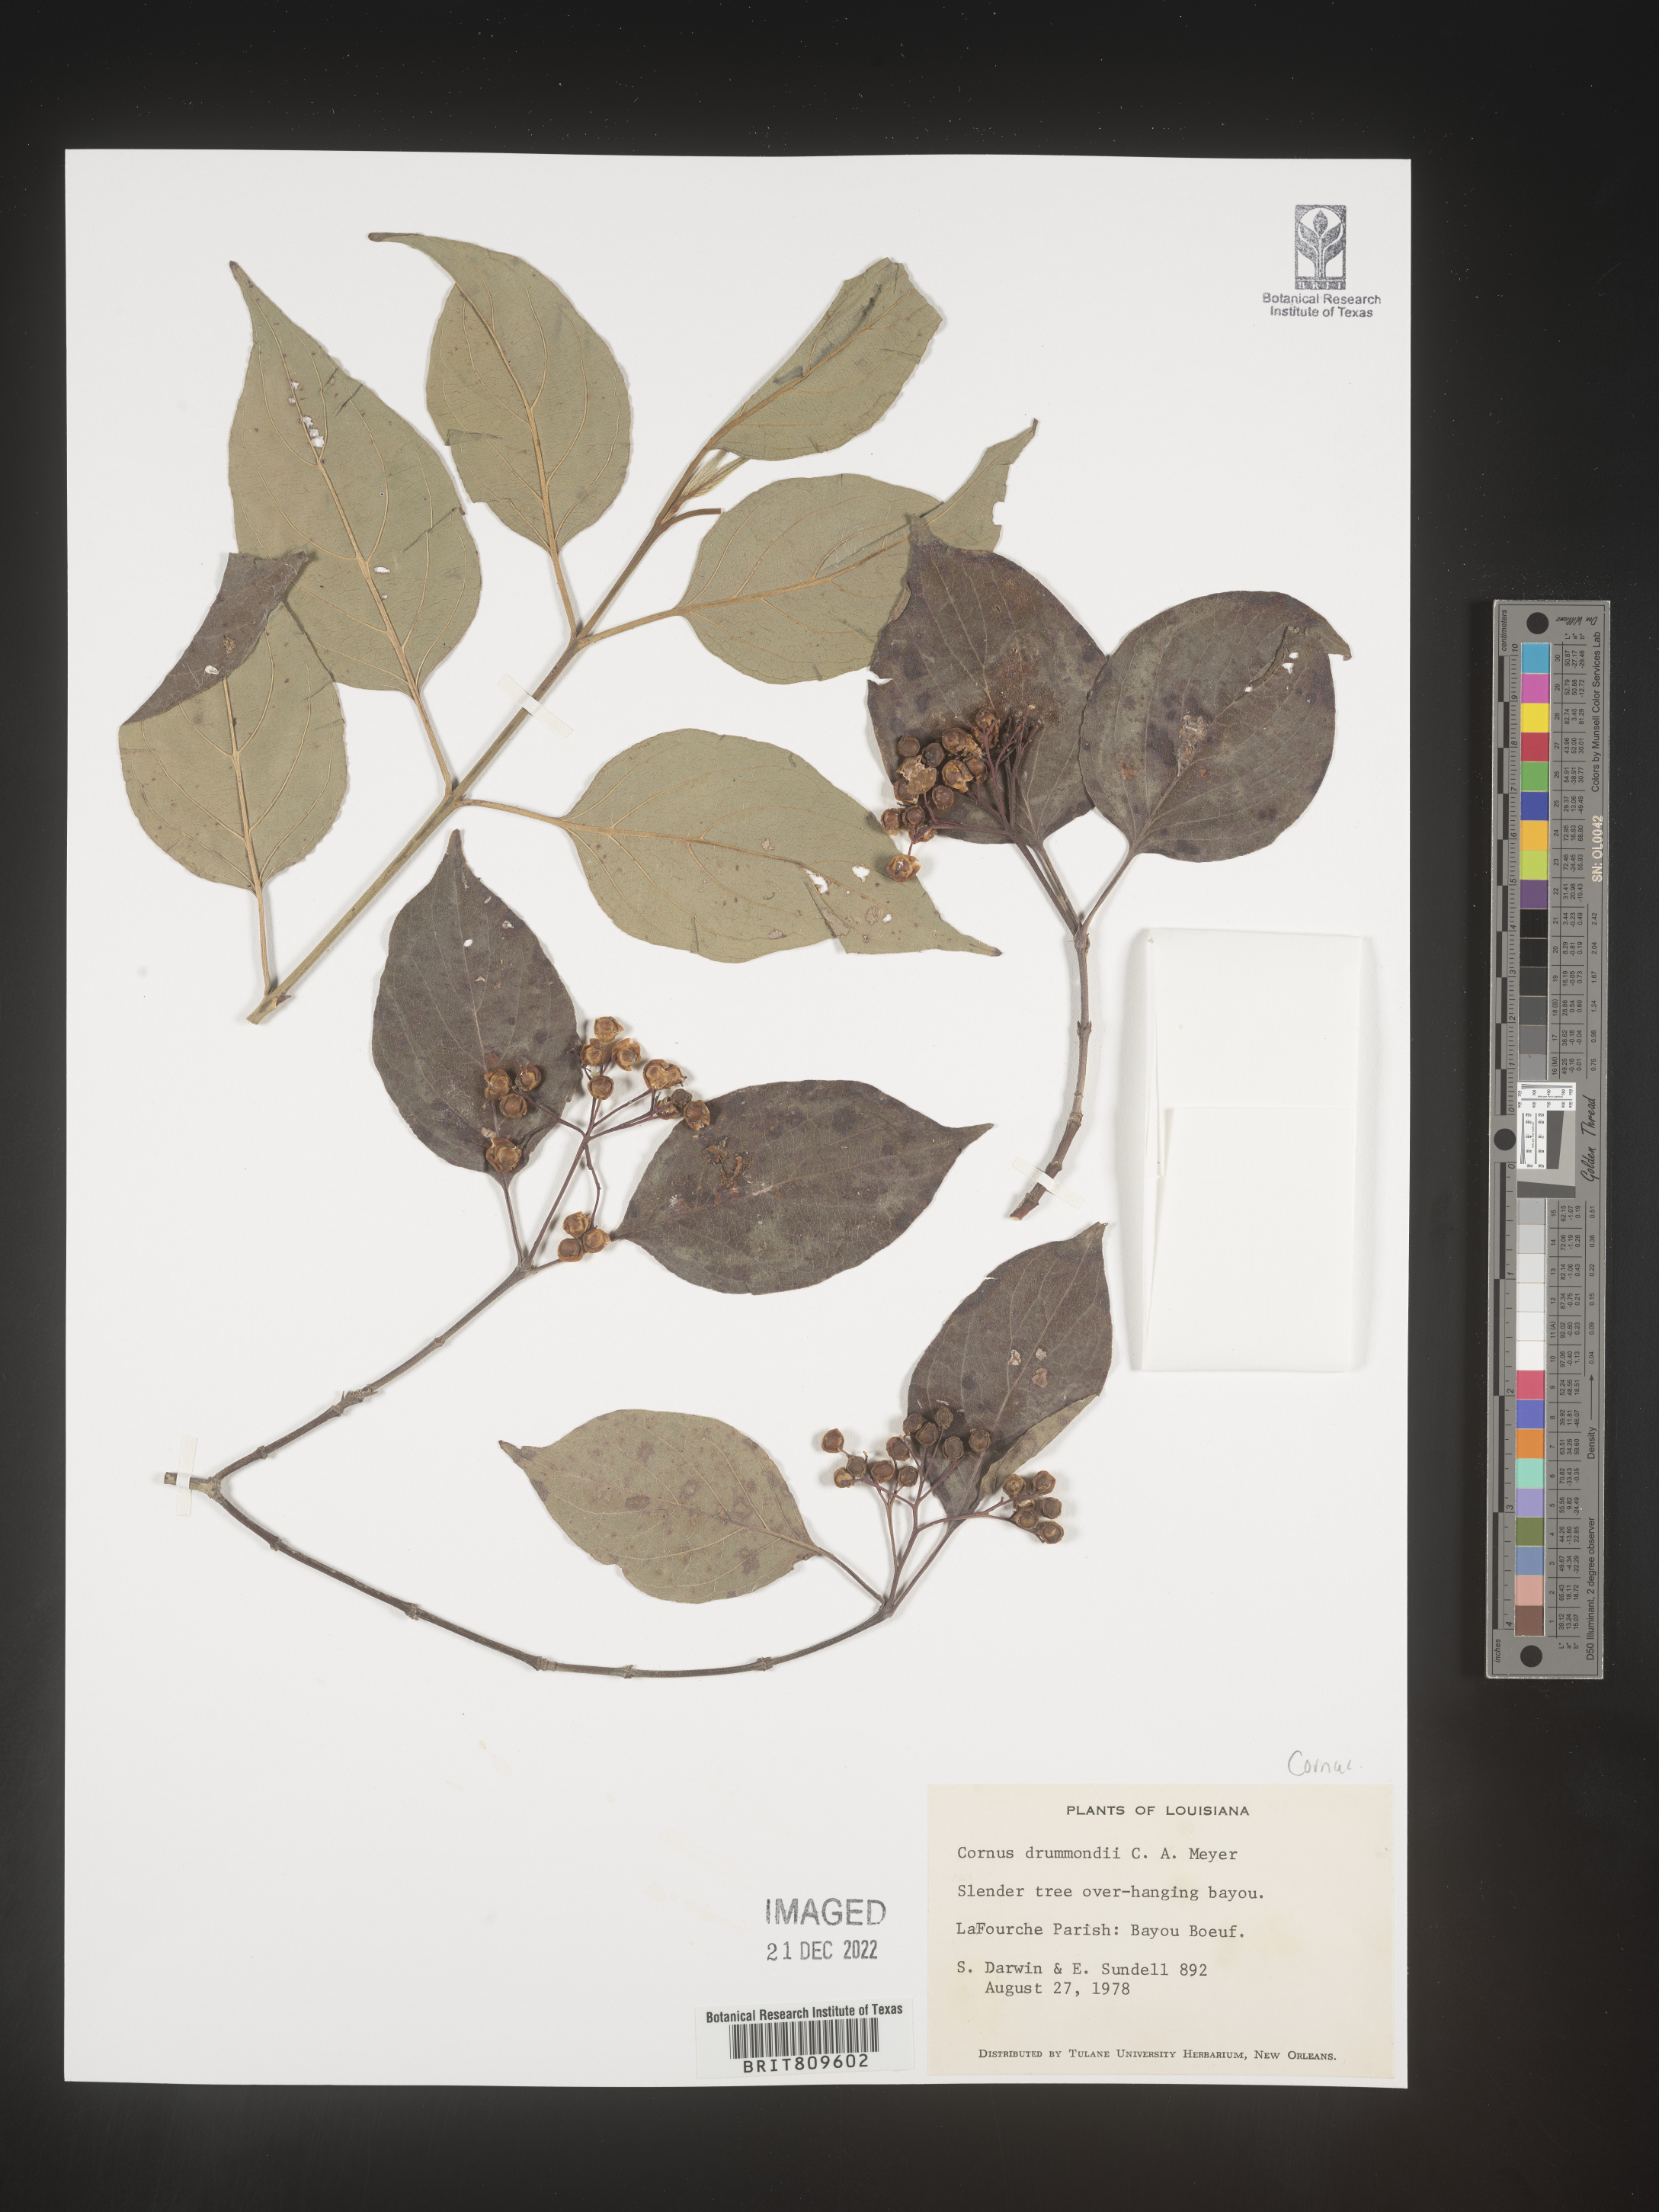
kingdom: Plantae
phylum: Tracheophyta
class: Magnoliopsida
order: Cornales
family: Cornaceae
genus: Cornus
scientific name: Cornus drummondii
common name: Rough-leaf dogwood
